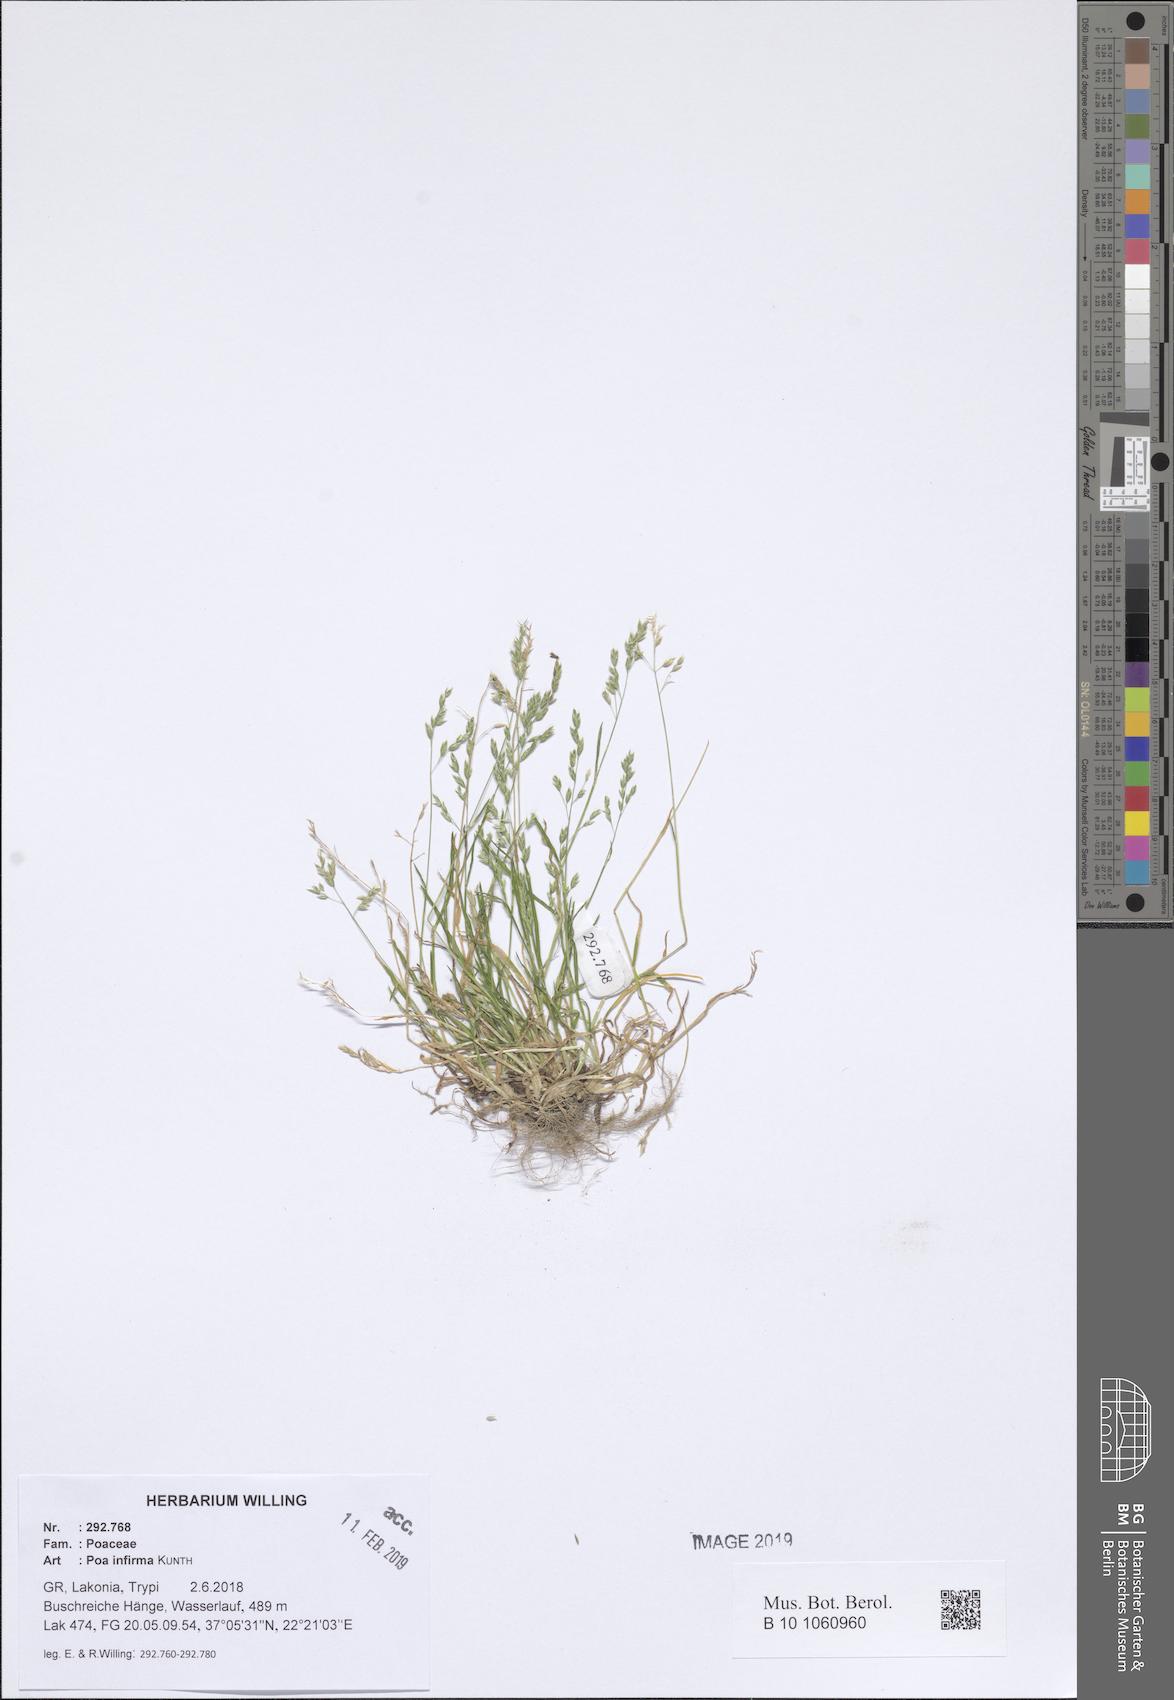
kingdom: Plantae
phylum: Tracheophyta
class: Liliopsida
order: Poales
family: Poaceae
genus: Poa
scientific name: Poa infirma
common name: Weak bluegrass
